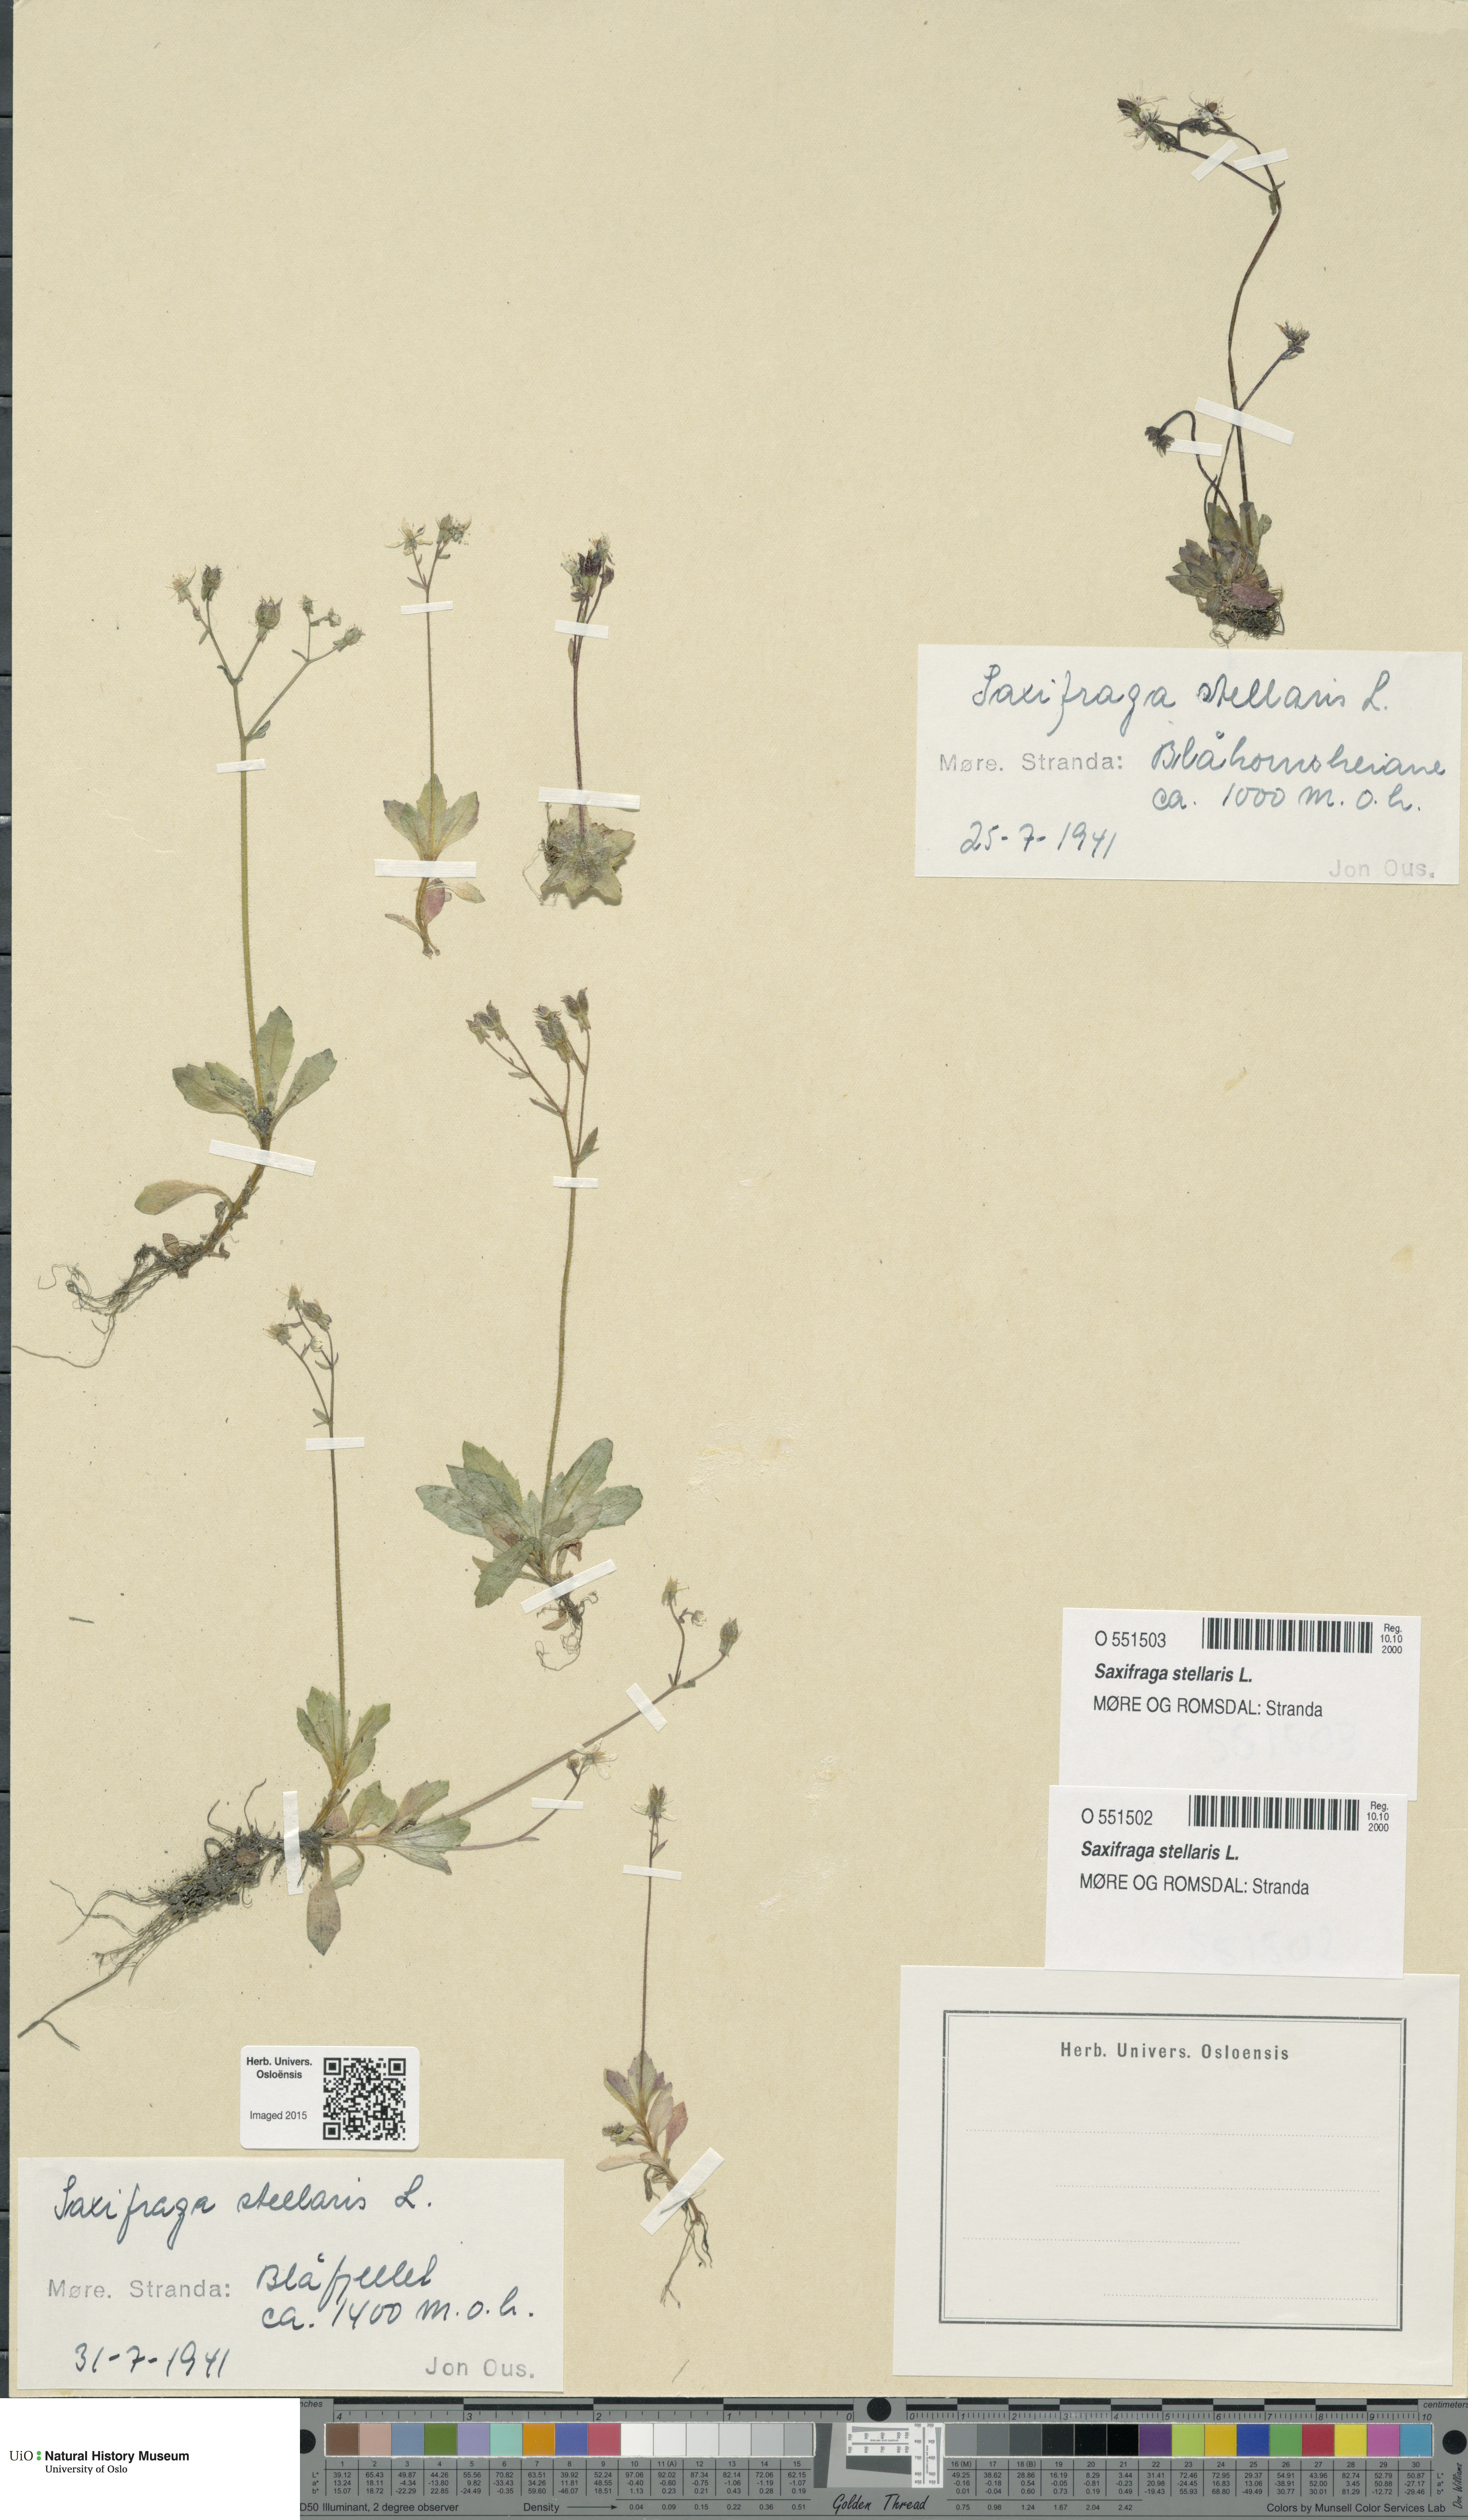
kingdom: Plantae
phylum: Tracheophyta
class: Magnoliopsida
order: Saxifragales
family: Saxifragaceae
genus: Micranthes
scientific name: Micranthes stellaris
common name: Starry saxifrage
